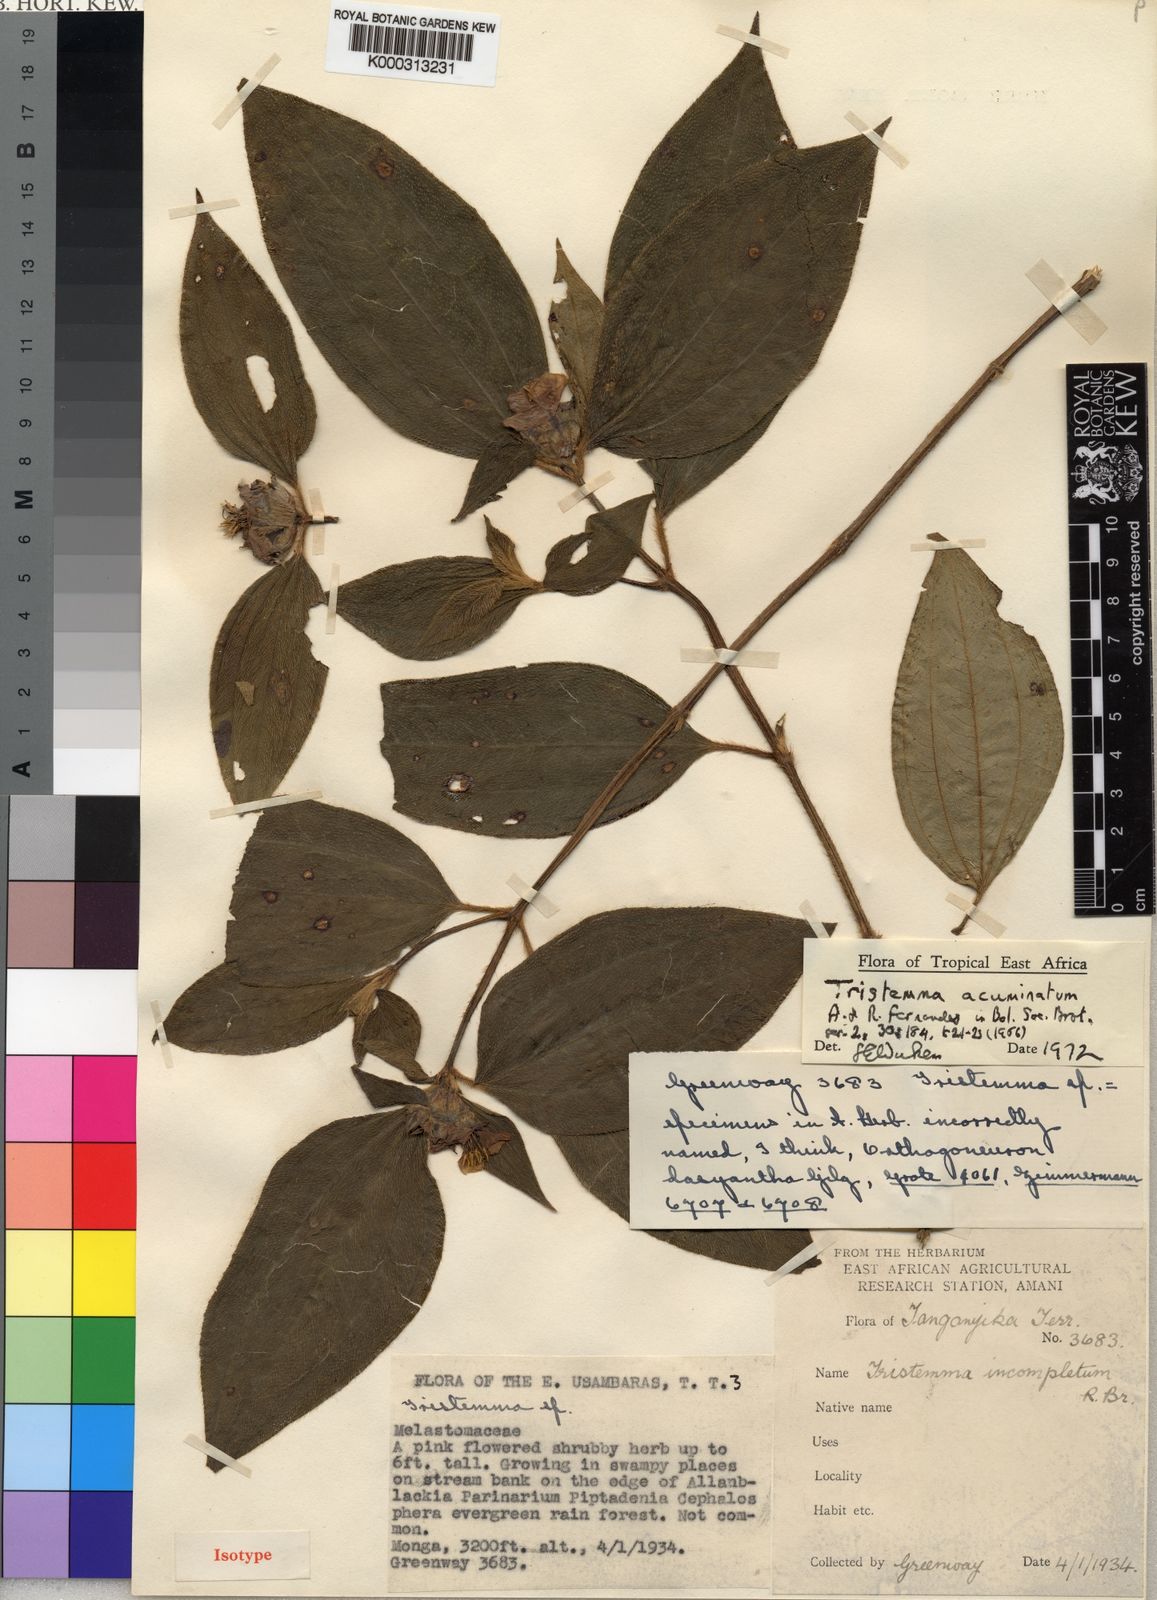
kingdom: Plantae
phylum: Tracheophyta
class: Magnoliopsida
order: Myrtales
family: Melastomataceae
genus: Tristemma
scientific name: Tristemma mauritianum
